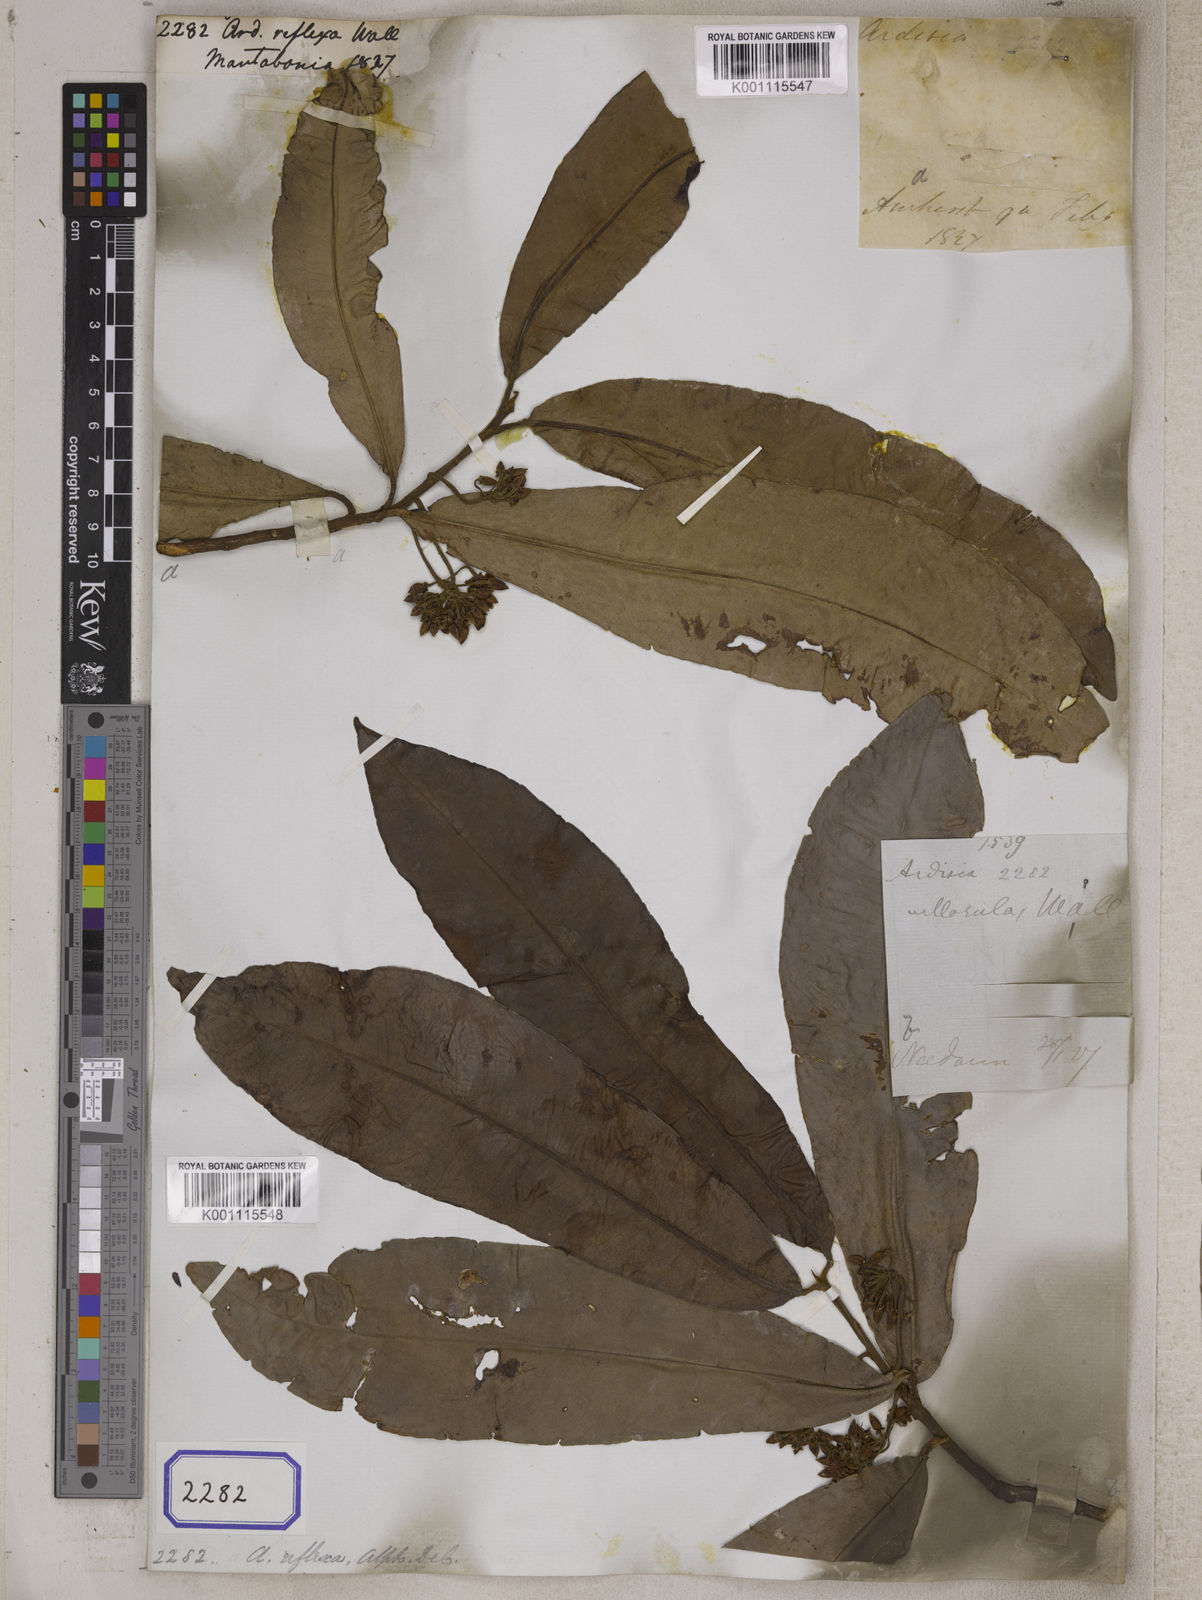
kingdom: Plantae
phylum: Tracheophyta
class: Magnoliopsida
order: Ericales
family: Primulaceae
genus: Ardisia
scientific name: Ardisia
